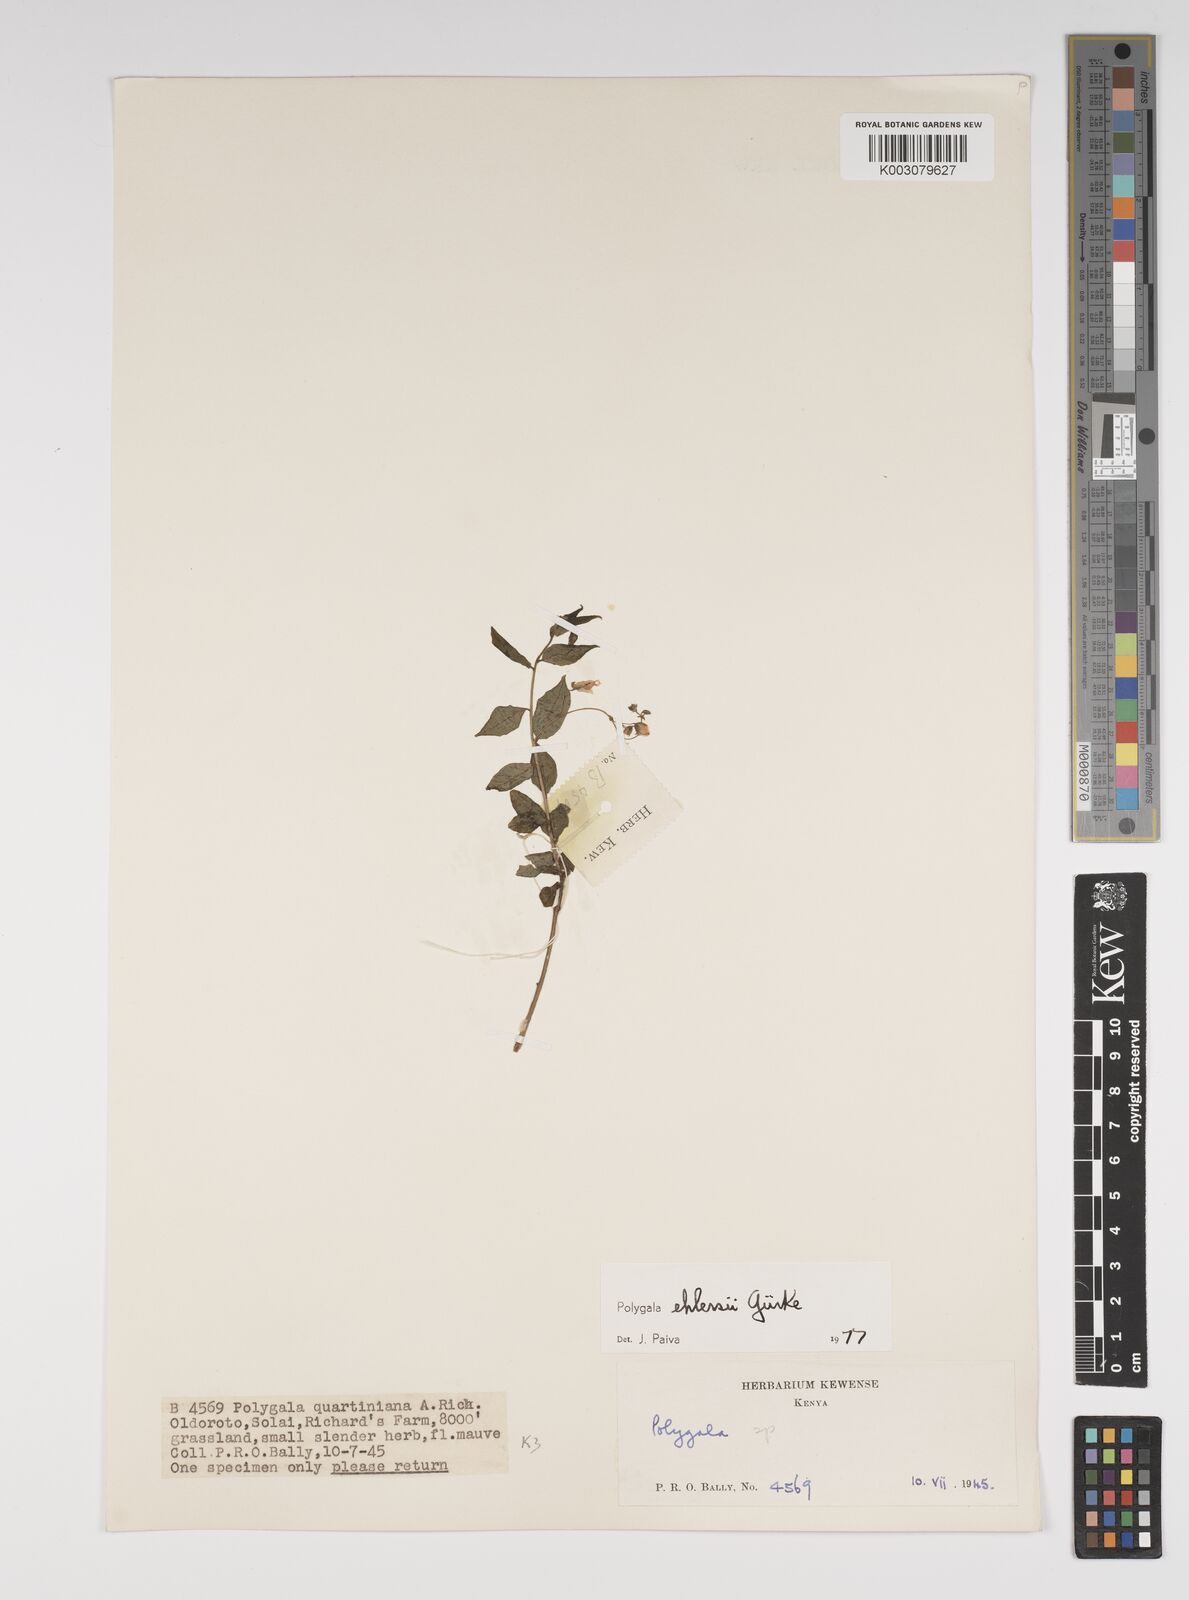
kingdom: Plantae
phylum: Tracheophyta
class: Magnoliopsida
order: Fabales
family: Polygalaceae
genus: Polygala
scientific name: Polygala ehlersii
